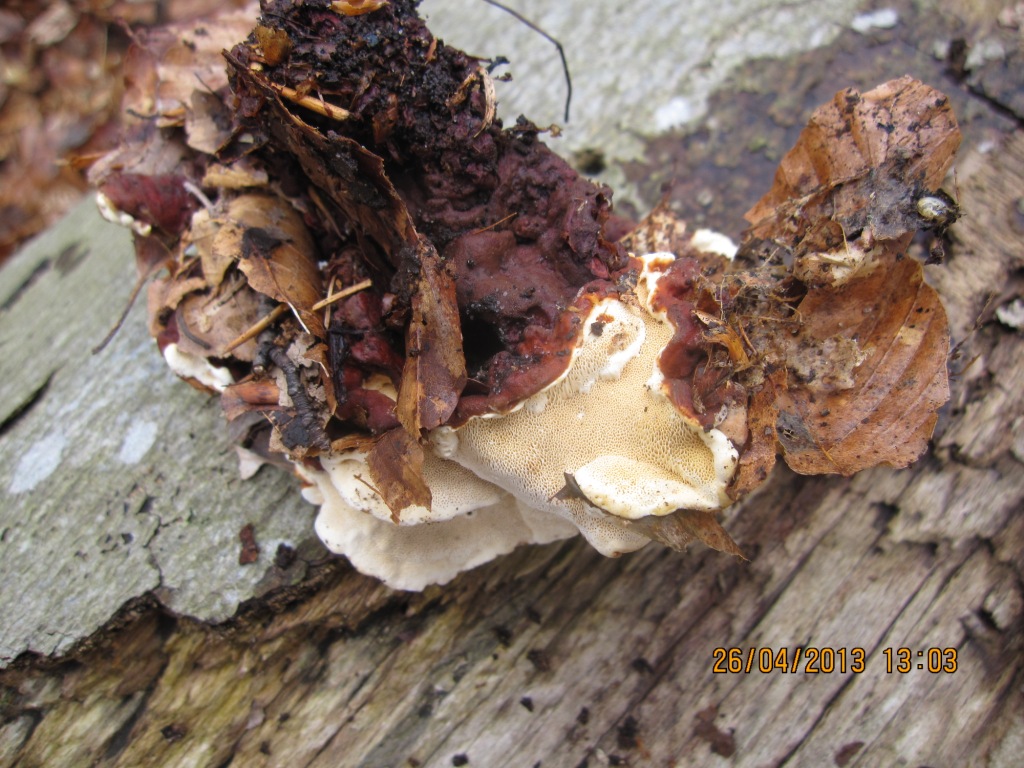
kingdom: Fungi
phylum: Basidiomycota
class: Agaricomycetes
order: Russulales
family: Bondarzewiaceae
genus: Heterobasidion
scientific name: Heterobasidion annosum
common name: almindelig rodfordærver
